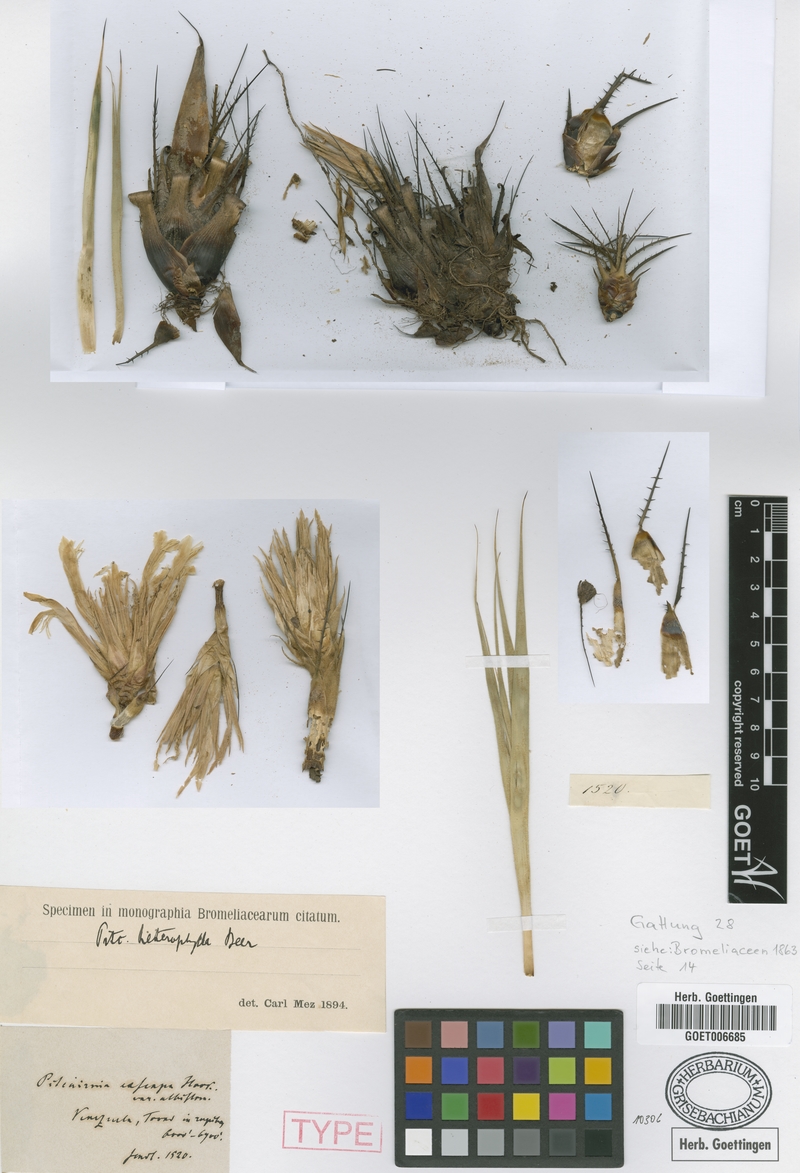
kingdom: Plantae
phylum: Tracheophyta
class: Liliopsida
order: Poales
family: Bromeliaceae
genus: Pitcairnia
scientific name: Pitcairnia heterophylla
